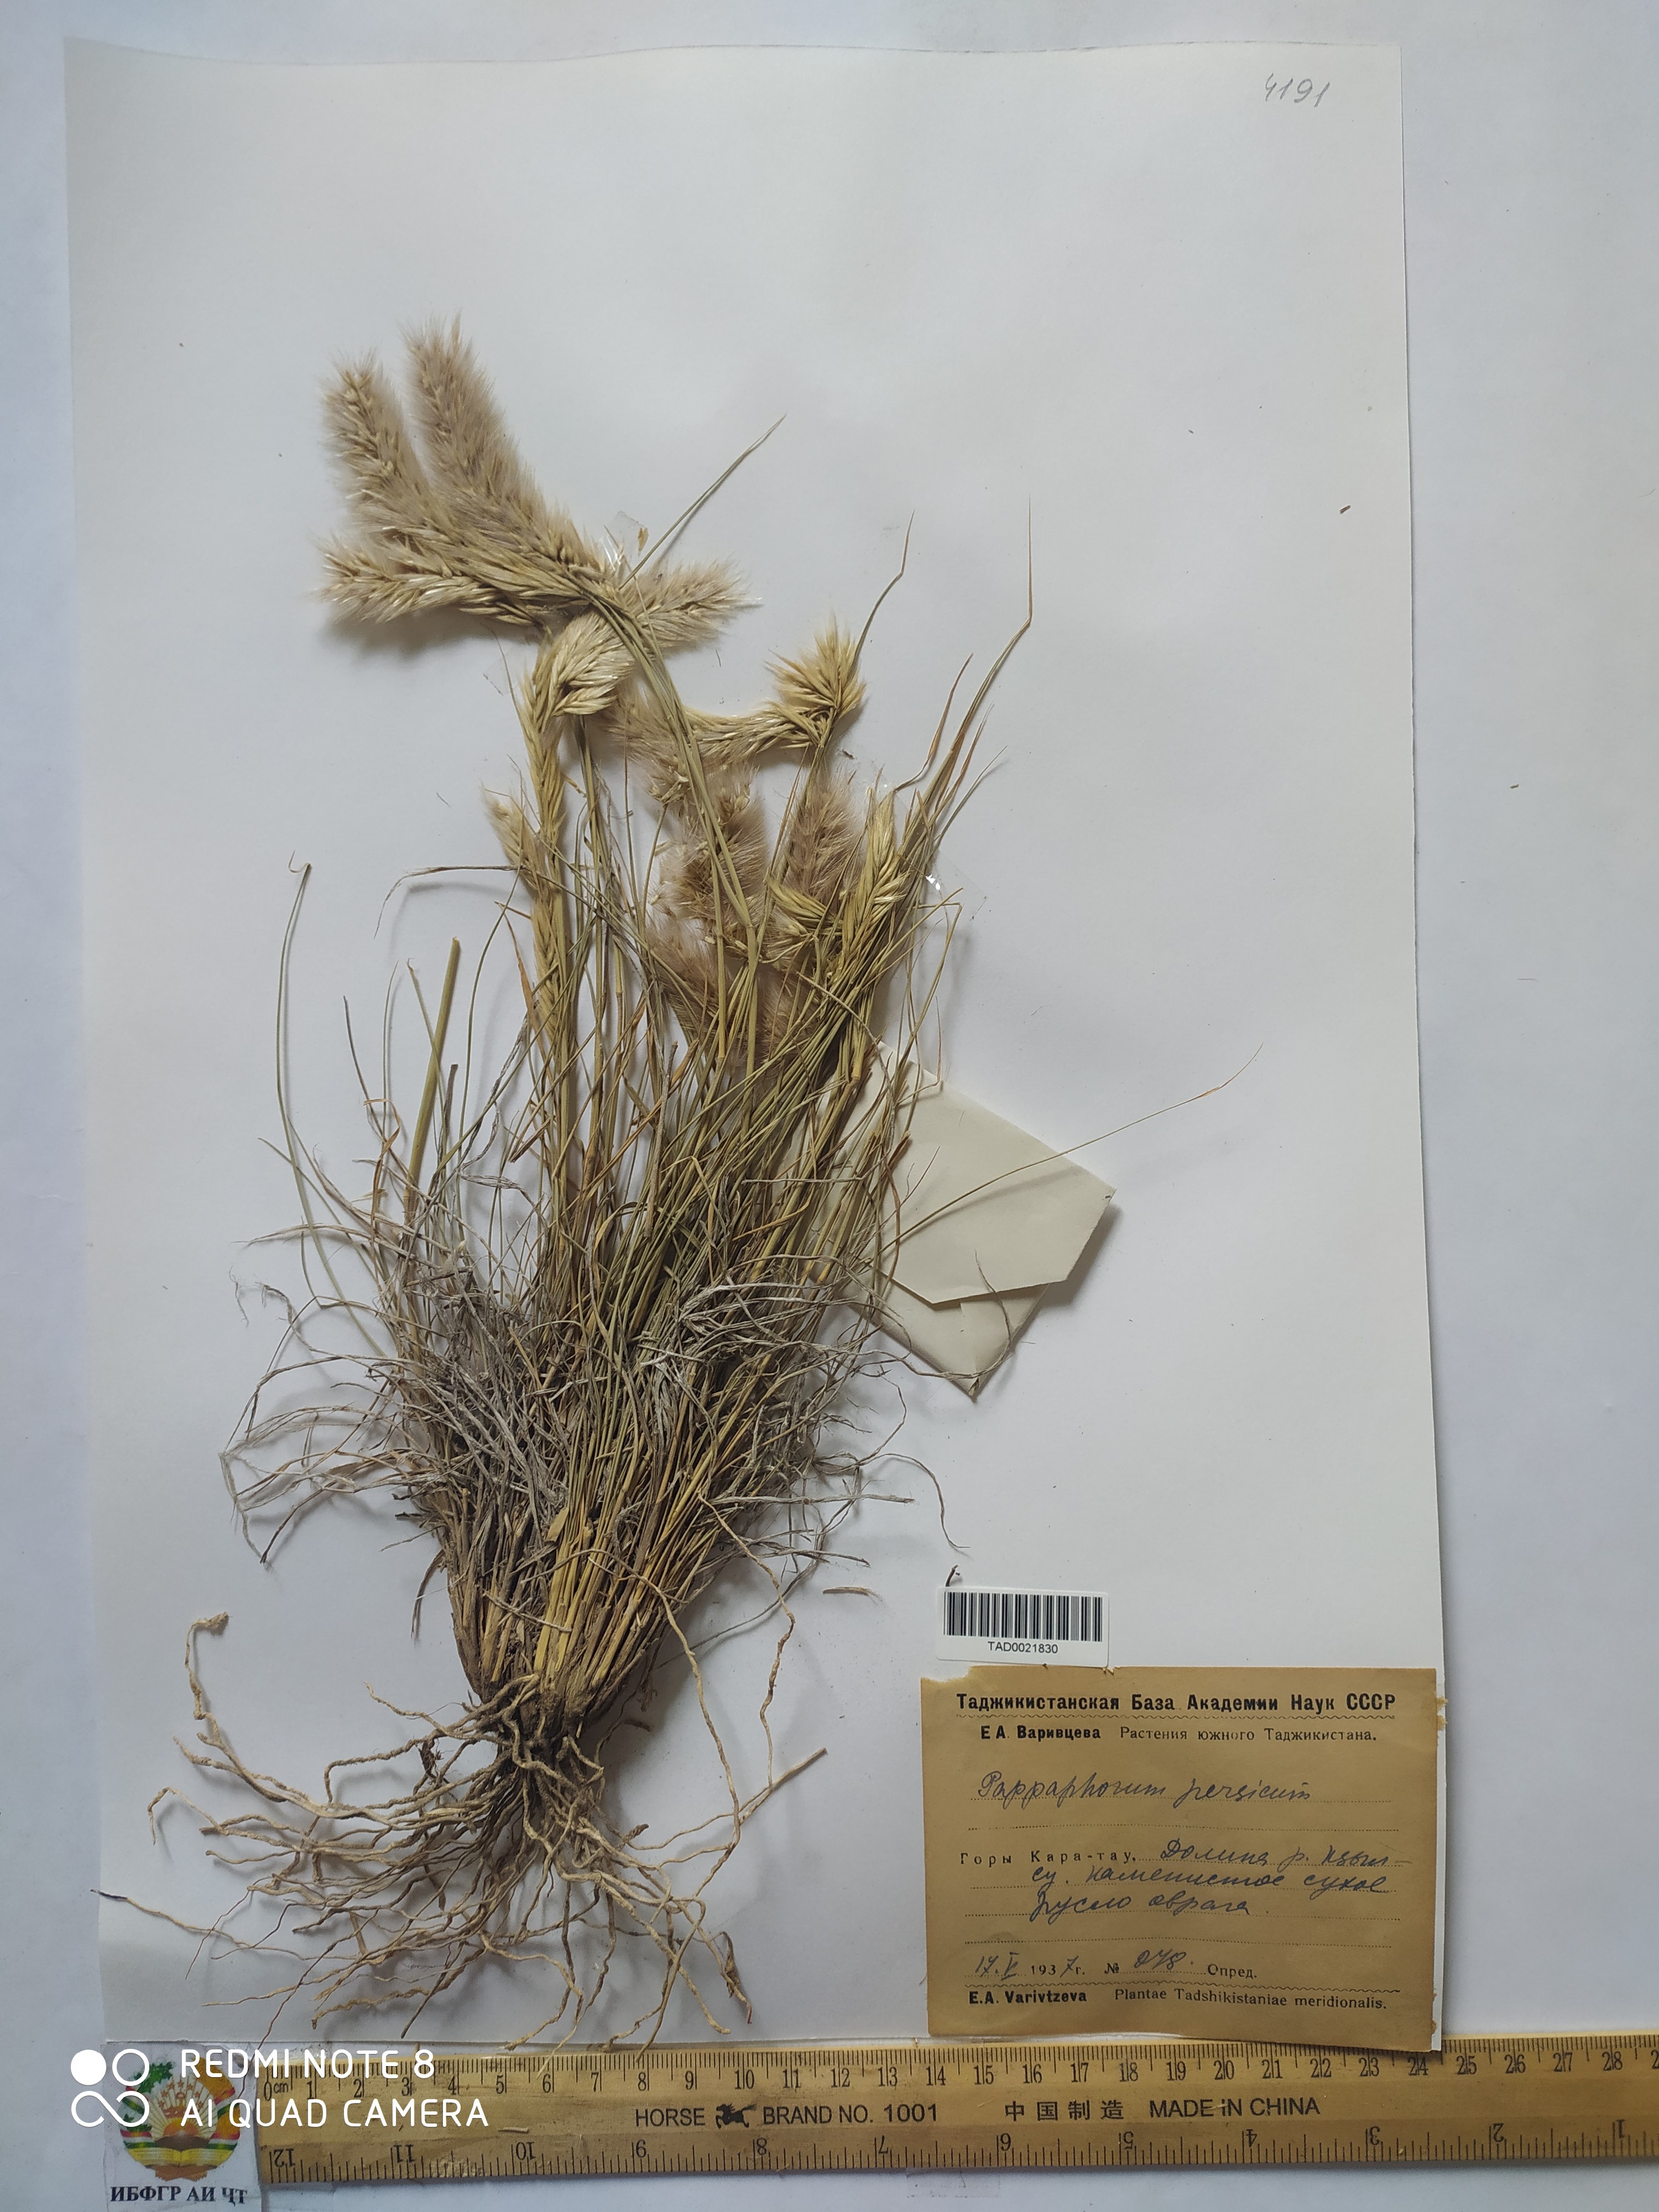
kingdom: Plantae
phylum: Tracheophyta
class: Liliopsida
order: Poales
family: Poaceae
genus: Enneapogon
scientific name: Enneapogon persicus
